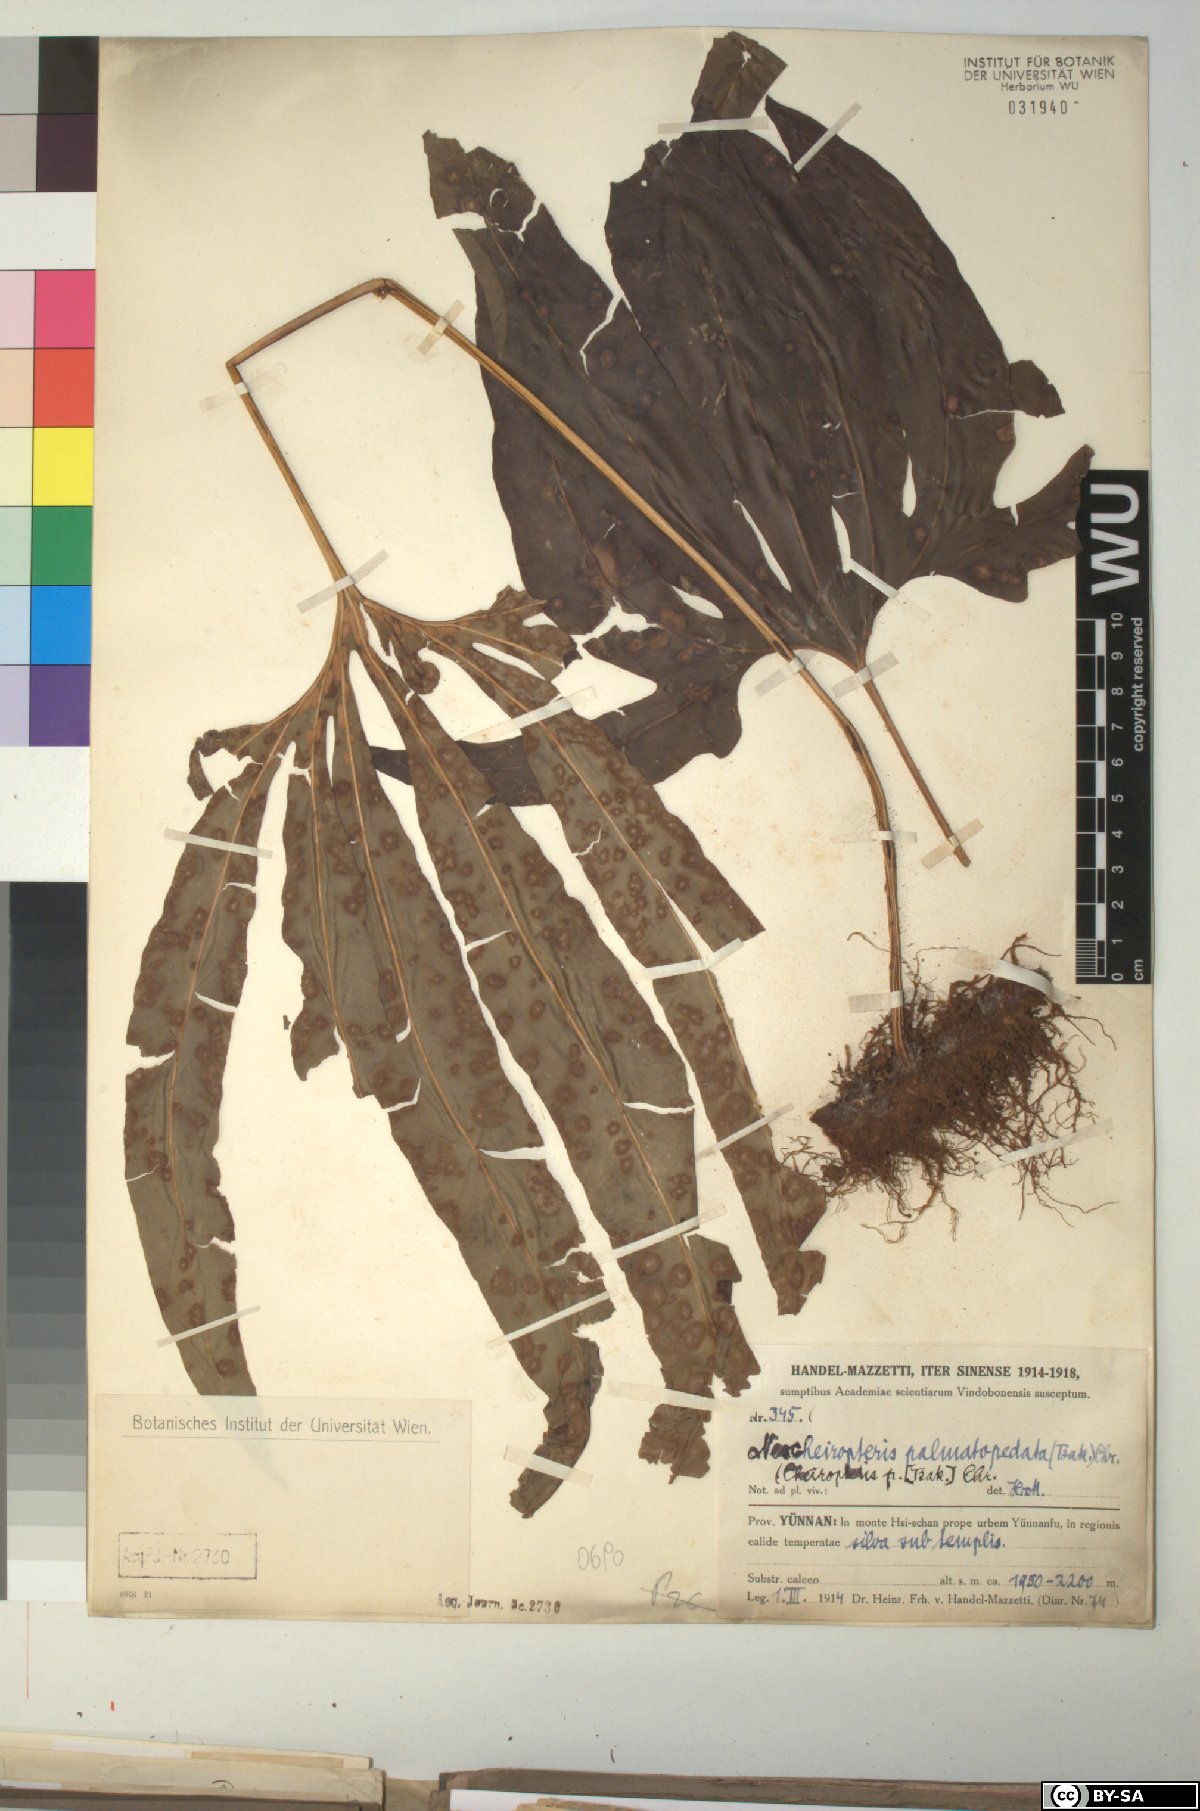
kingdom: Plantae
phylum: Tracheophyta
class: Polypodiopsida
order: Polypodiales
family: Polypodiaceae
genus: Lepisorus
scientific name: Lepisorus palmatopedatus
